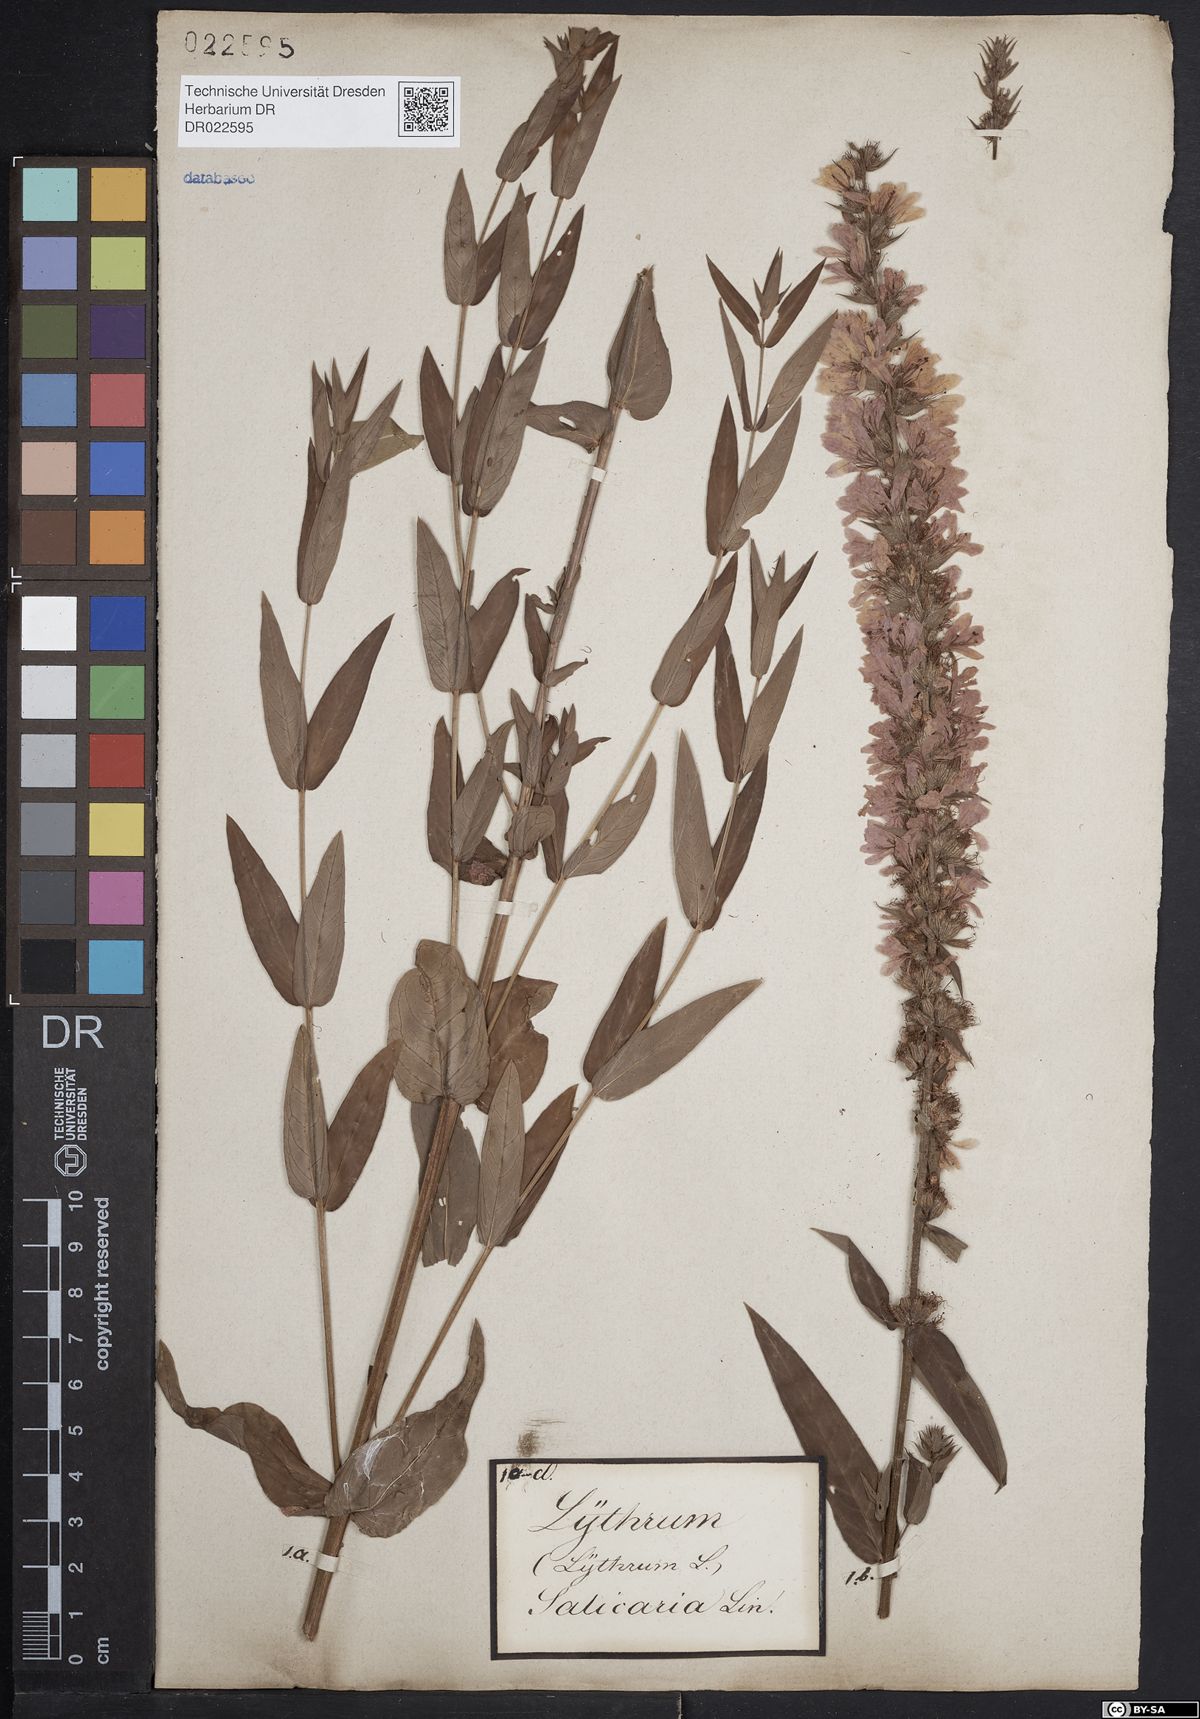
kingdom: Plantae
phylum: Tracheophyta
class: Magnoliopsida
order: Myrtales
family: Lythraceae
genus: Lythrum
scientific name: Lythrum salicaria
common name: Purple loosestrife
